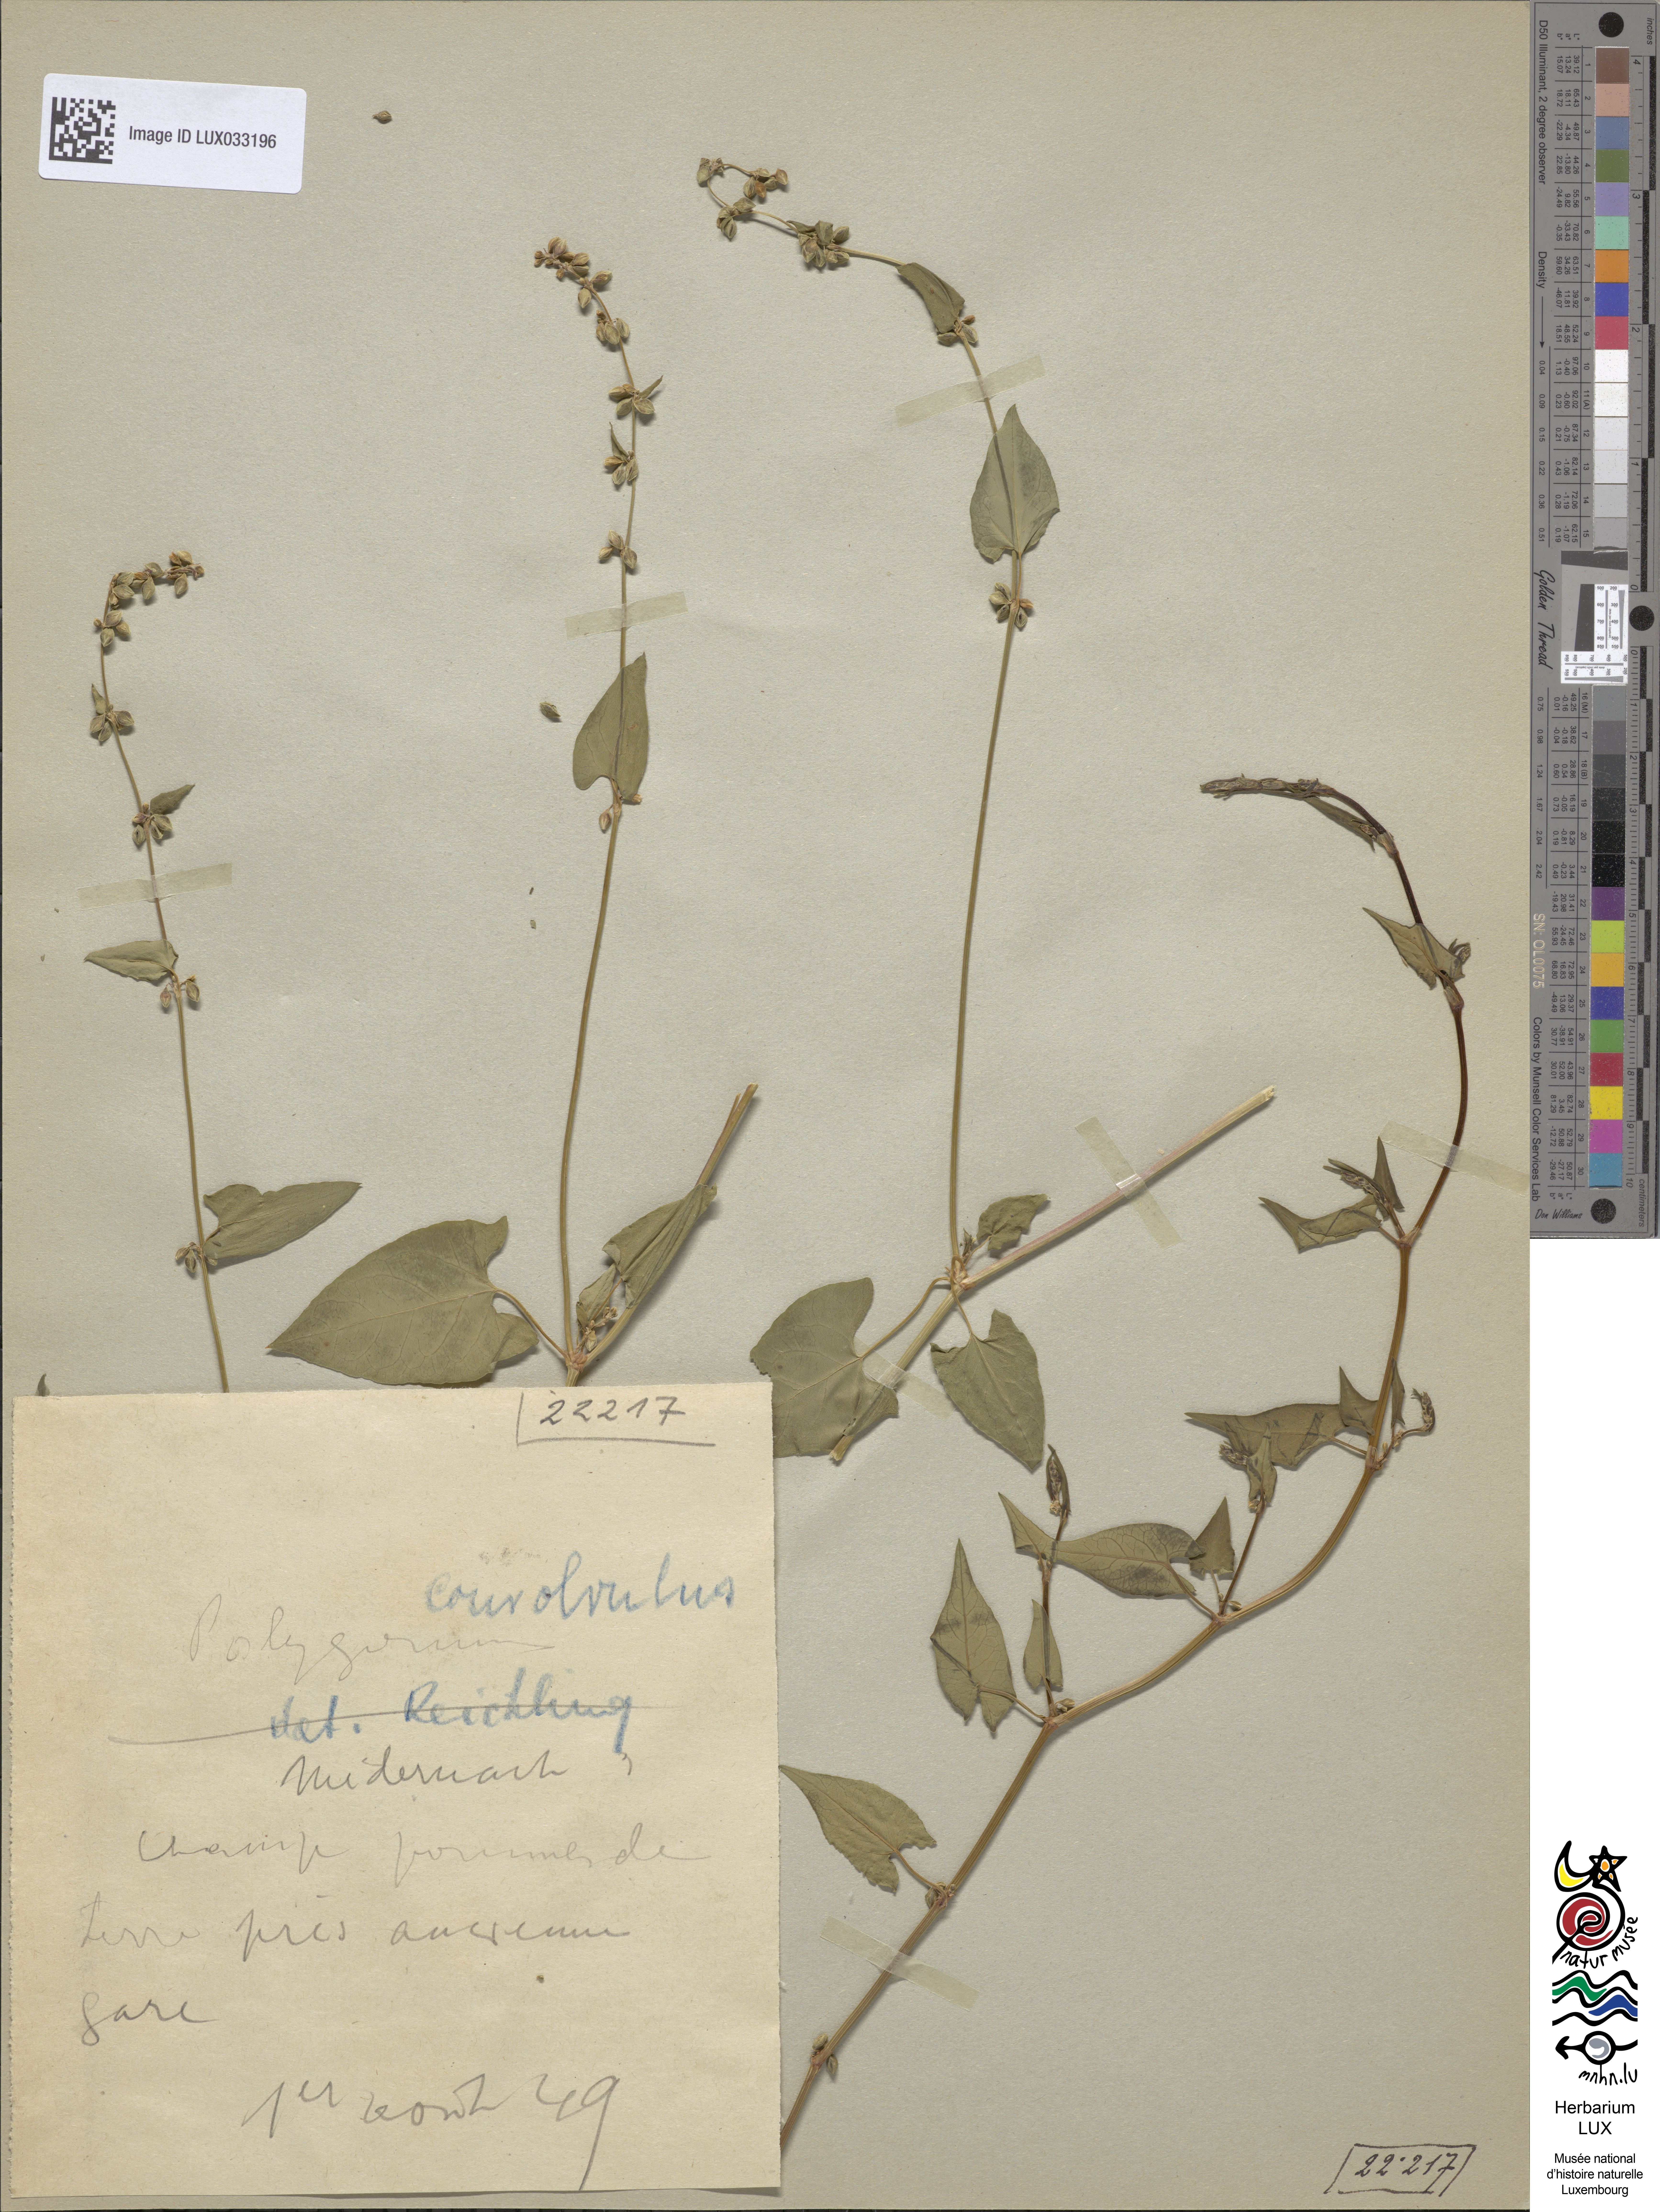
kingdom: Plantae
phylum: Tracheophyta
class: Magnoliopsida
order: Caryophyllales
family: Polygonaceae
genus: Fallopia
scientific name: Fallopia convolvulus
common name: Black bindweed
